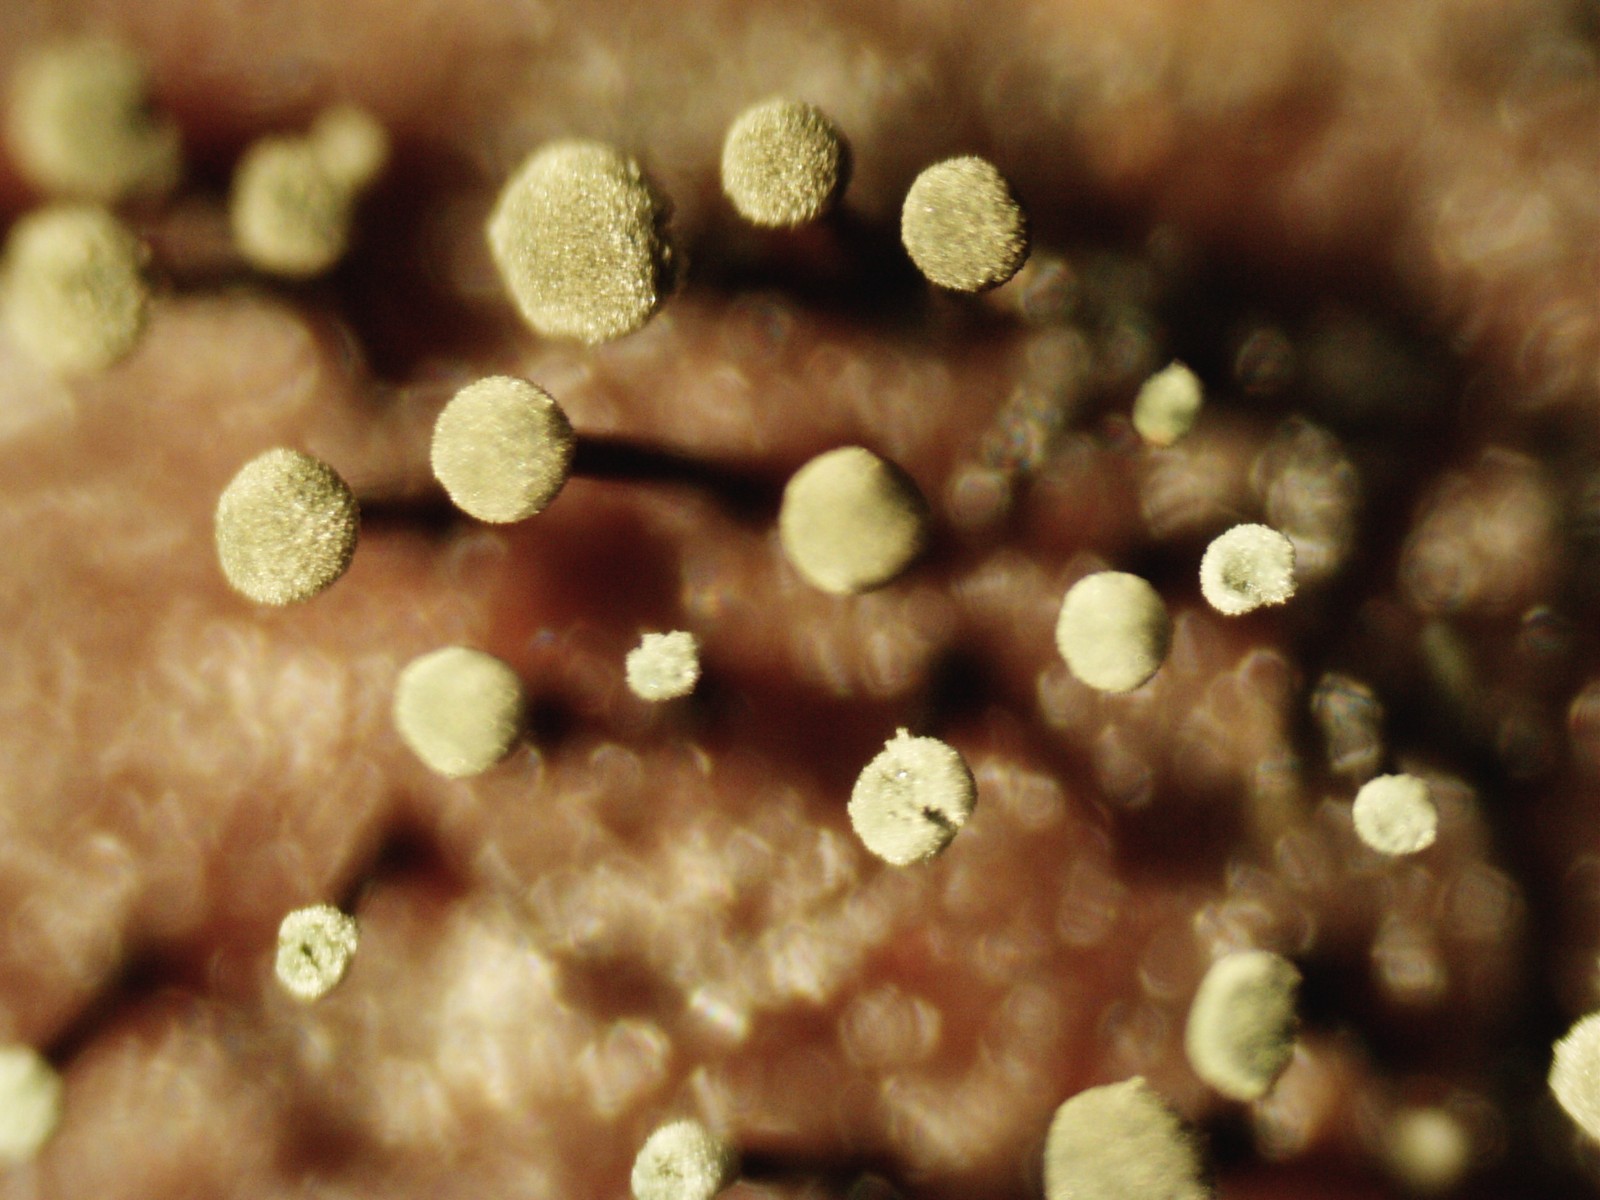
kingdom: Fungi
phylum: Ascomycota
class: Dothideomycetes
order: Pleosporales
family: Melanommataceae
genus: Seifertia
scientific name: Seifertia azaleae
